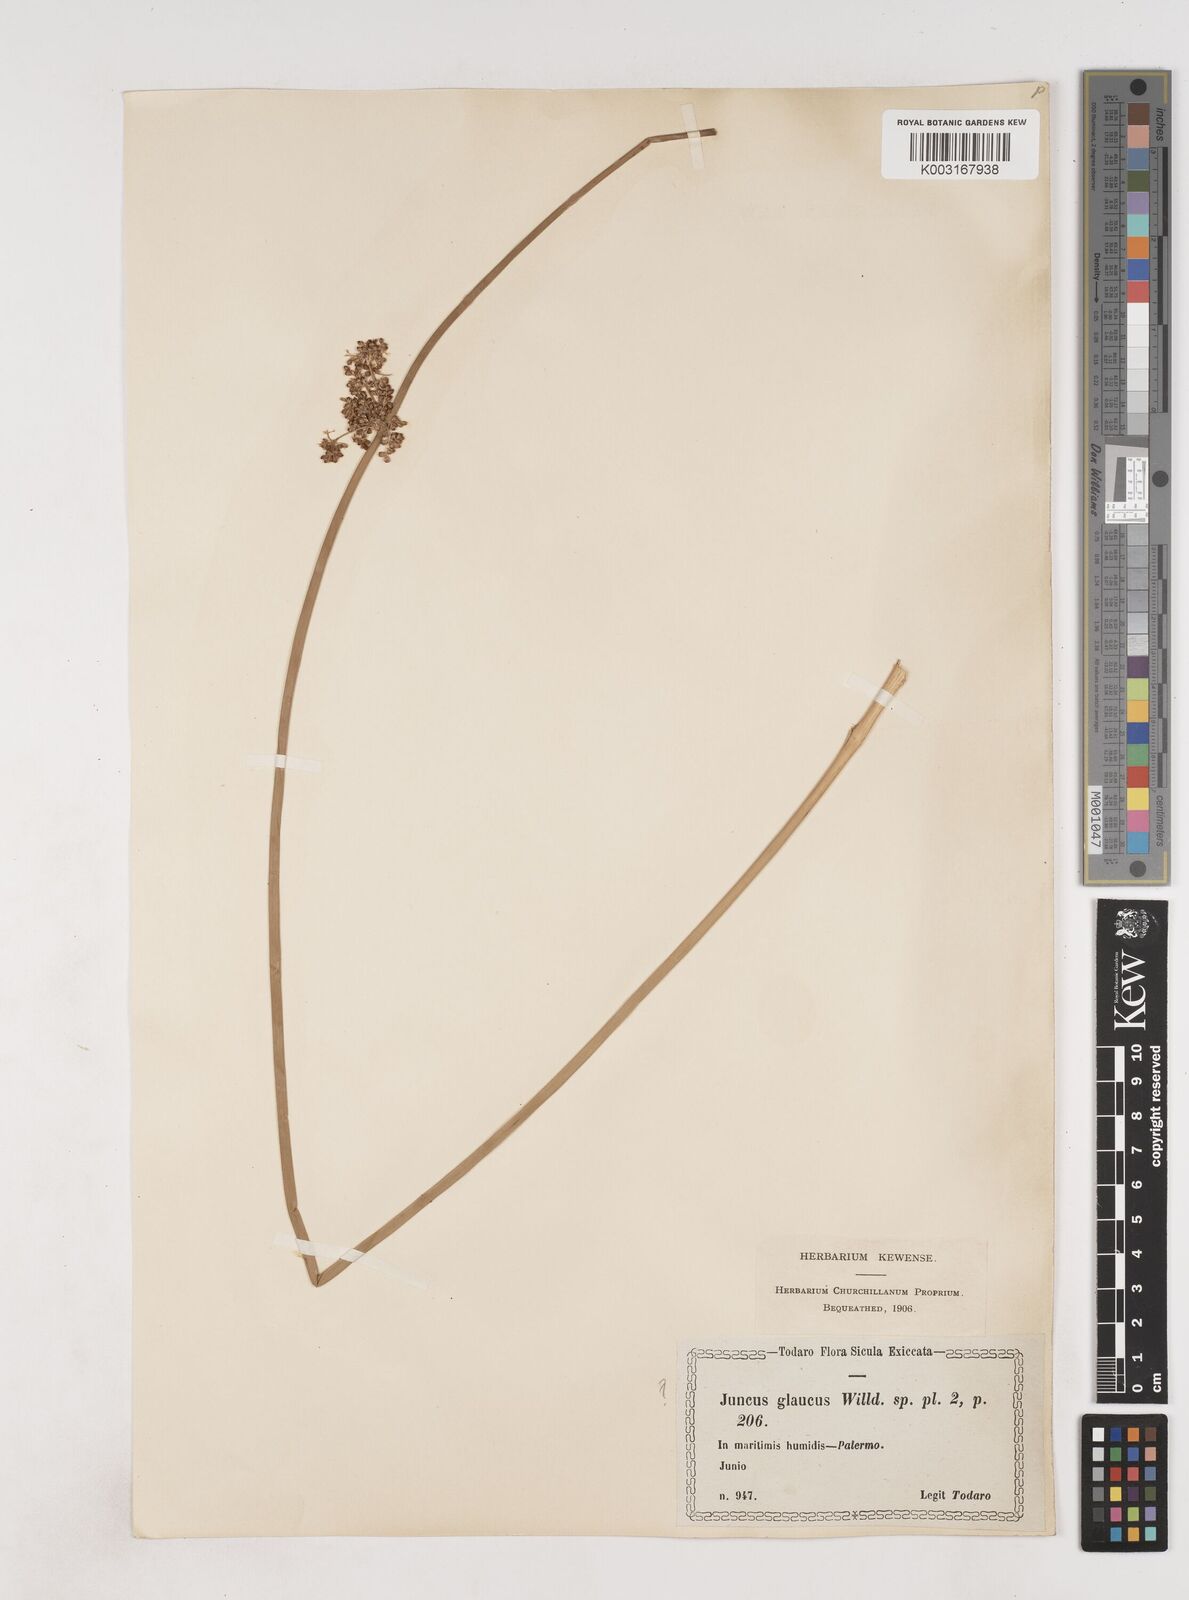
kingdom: Plantae
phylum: Tracheophyta
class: Liliopsida
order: Poales
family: Juncaceae
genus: Juncus
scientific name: Juncus effusus
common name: Soft rush
